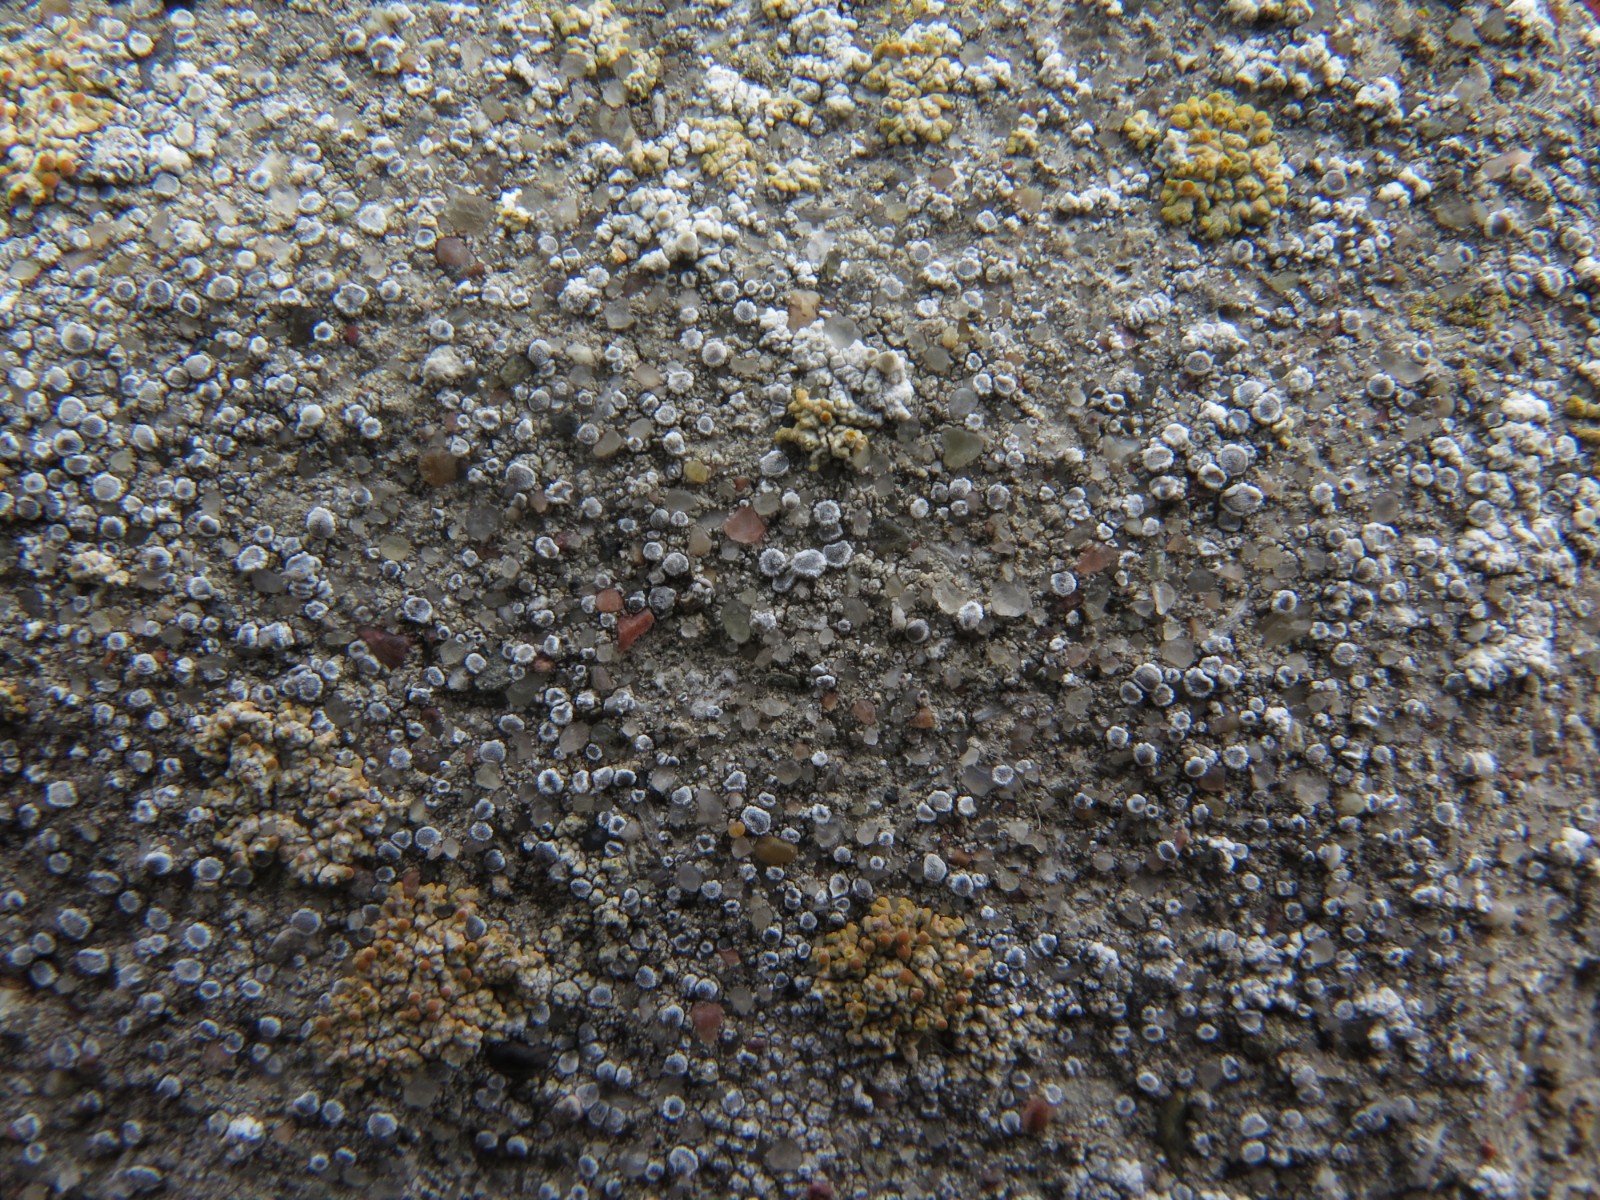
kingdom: Fungi
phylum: Ascomycota
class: Lecanoromycetes
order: Lecanorales
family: Lecanoraceae
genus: Polyozosia
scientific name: Polyozosia dispersa
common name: spredt kantskivelav
